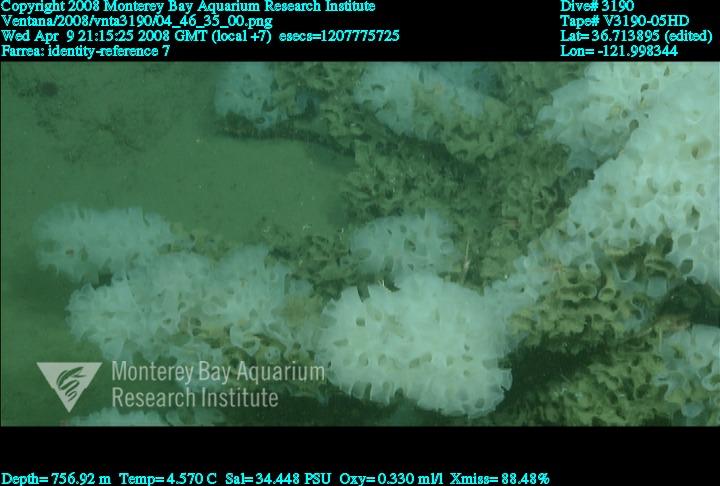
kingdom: Animalia
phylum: Porifera
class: Hexactinellida
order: Sceptrulophora
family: Farreidae
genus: Farrea
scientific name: Farrea
